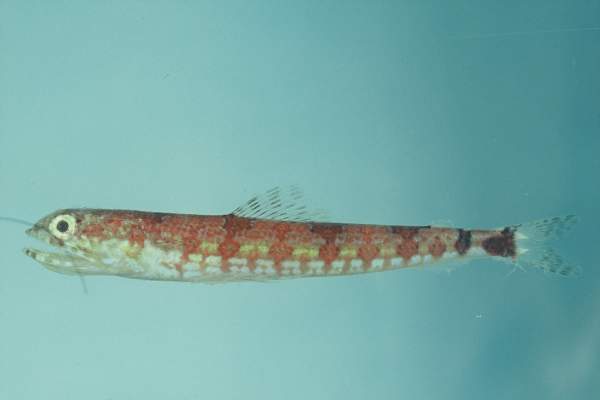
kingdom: Animalia
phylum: Chordata
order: Aulopiformes
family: Synodontidae
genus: Synodus
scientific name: Synodus jaculum
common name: Lighthouse lizardfish
